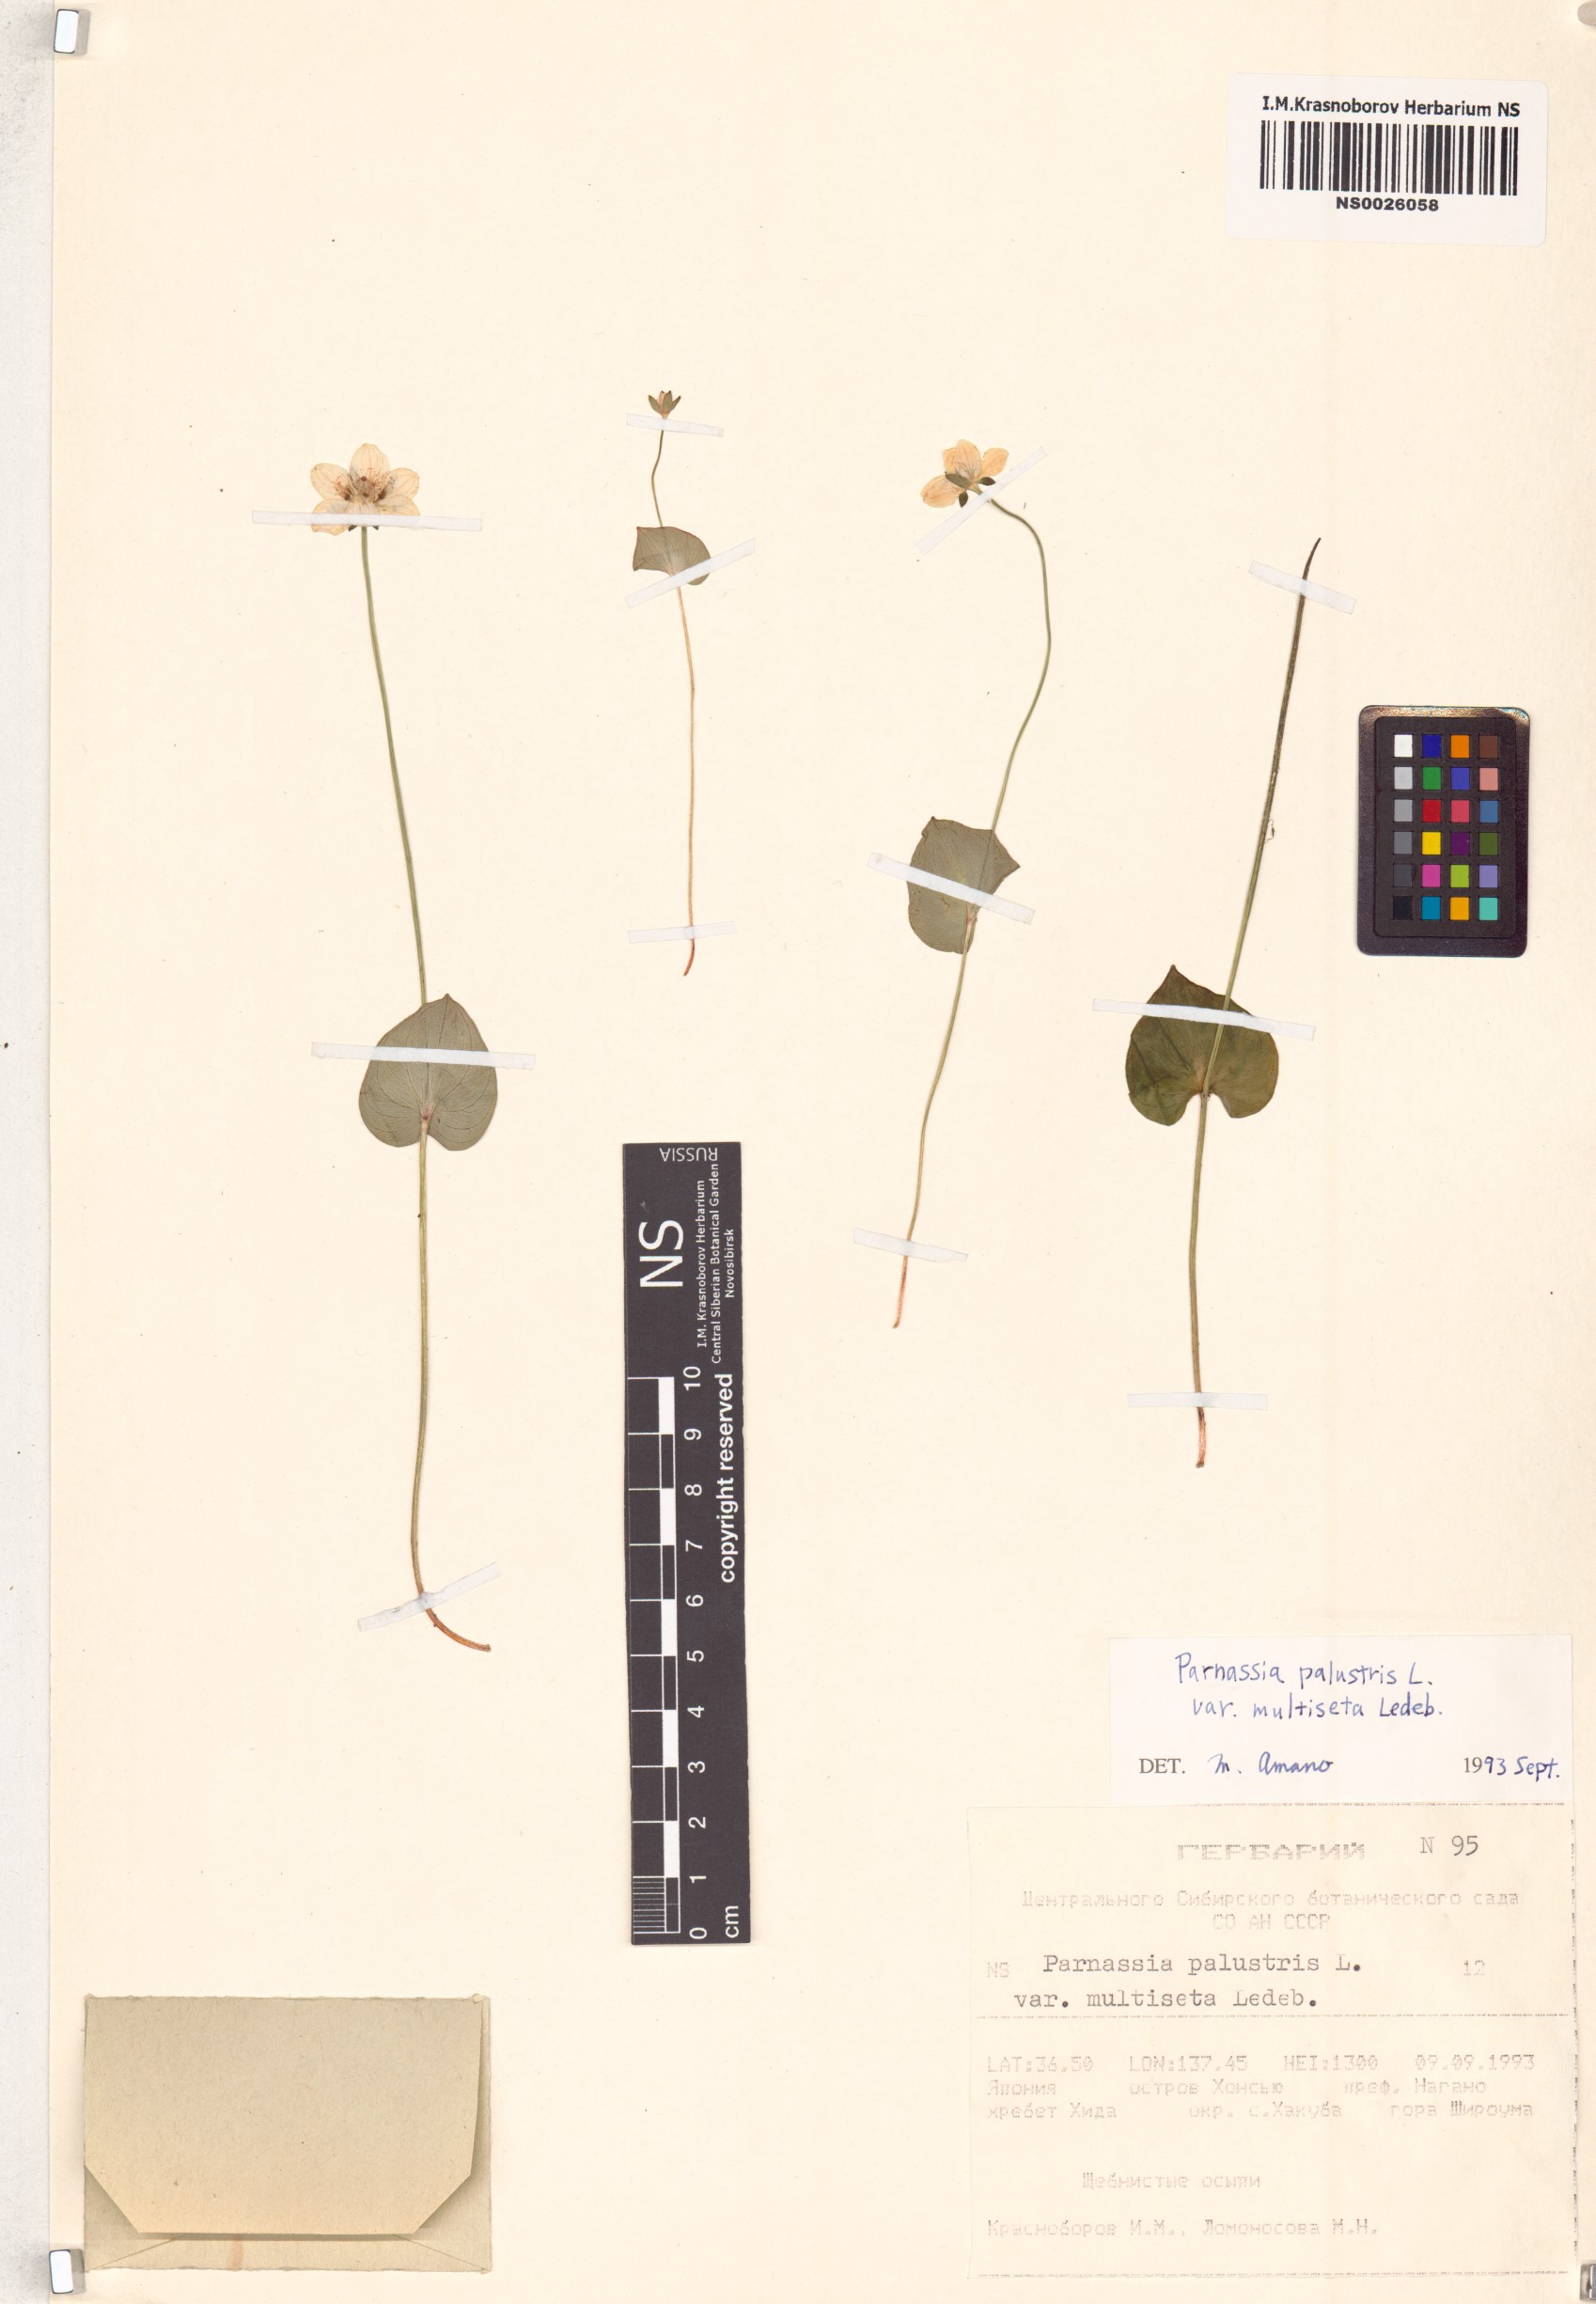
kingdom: Plantae
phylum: Tracheophyta
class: Magnoliopsida
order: Celastrales
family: Parnassiaceae
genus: Parnassia
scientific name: Parnassia palustris
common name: Grass-of-parnassus
